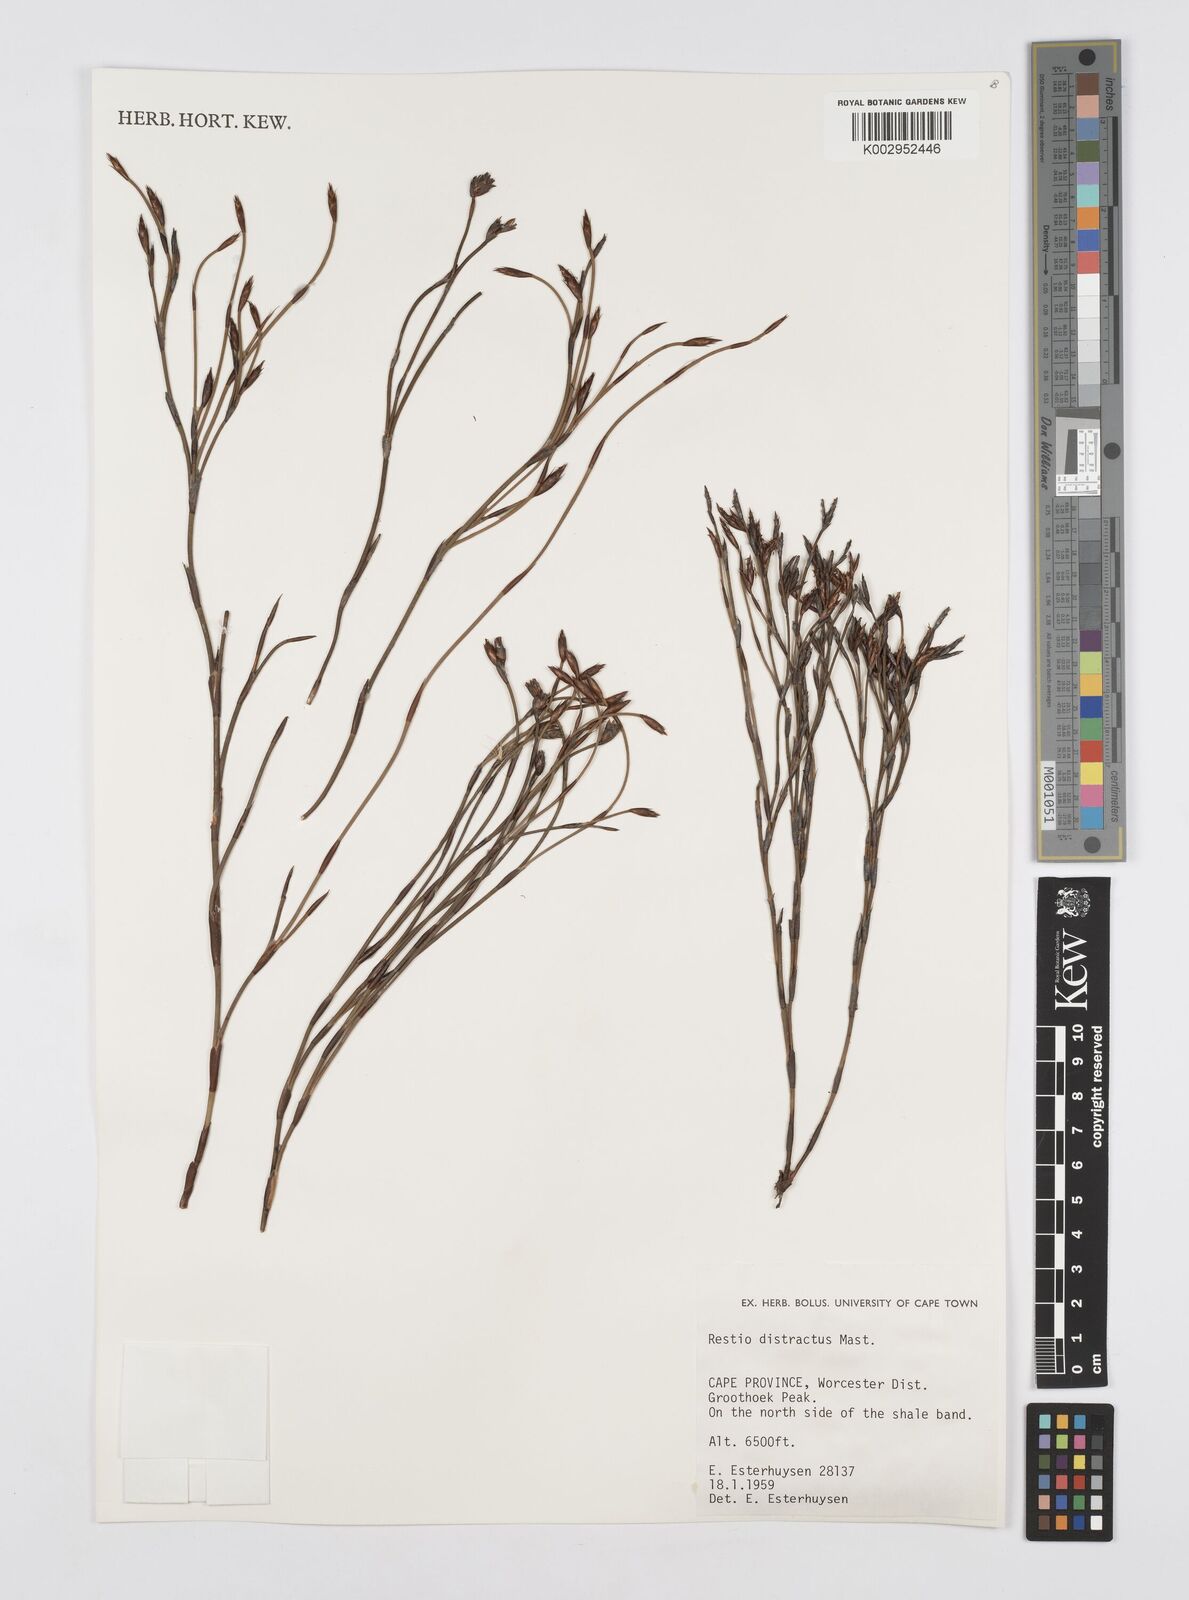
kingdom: Plantae
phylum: Tracheophyta
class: Liliopsida
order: Poales
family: Restionaceae
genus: Restio
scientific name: Restio distractus
